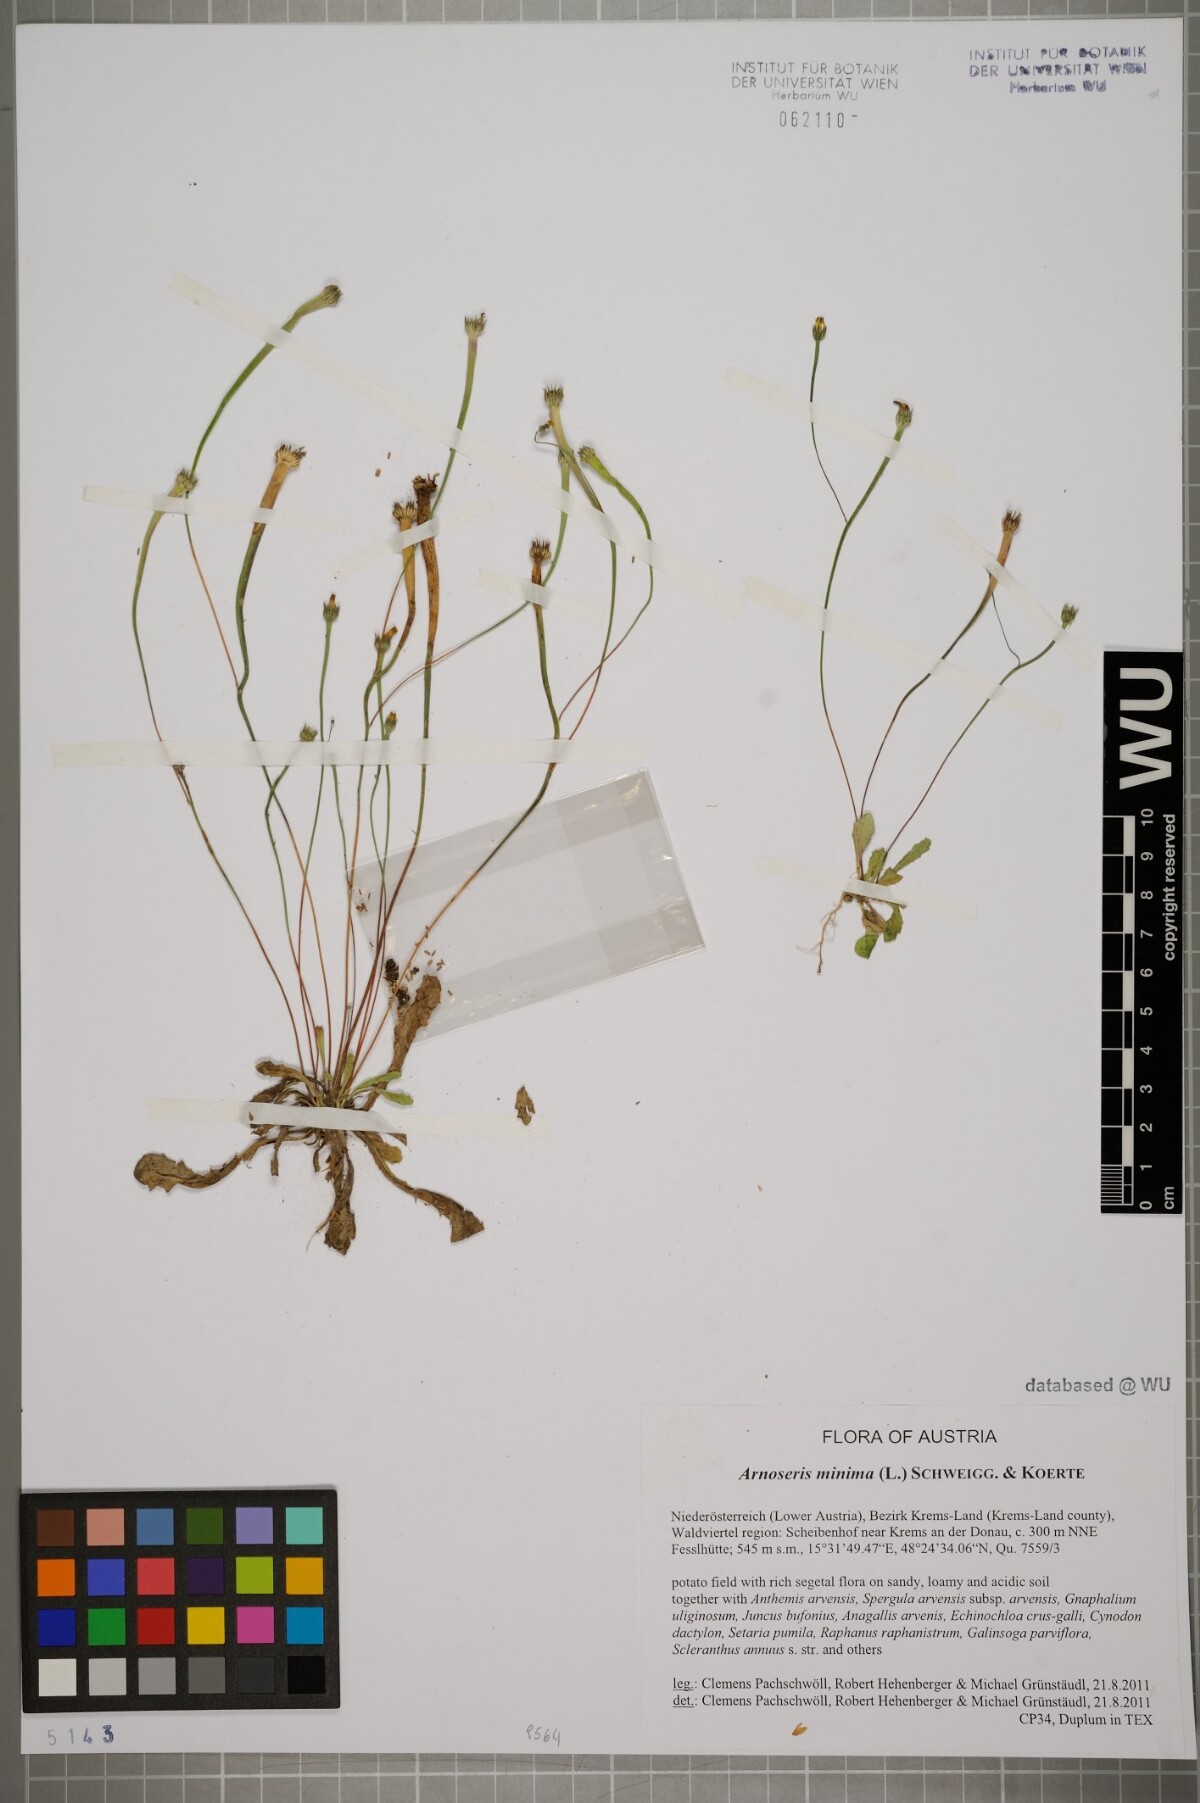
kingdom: Plantae
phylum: Tracheophyta
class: Magnoliopsida
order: Asterales
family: Asteraceae
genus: Arnoseris
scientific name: Arnoseris minima
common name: Lamb's succory
